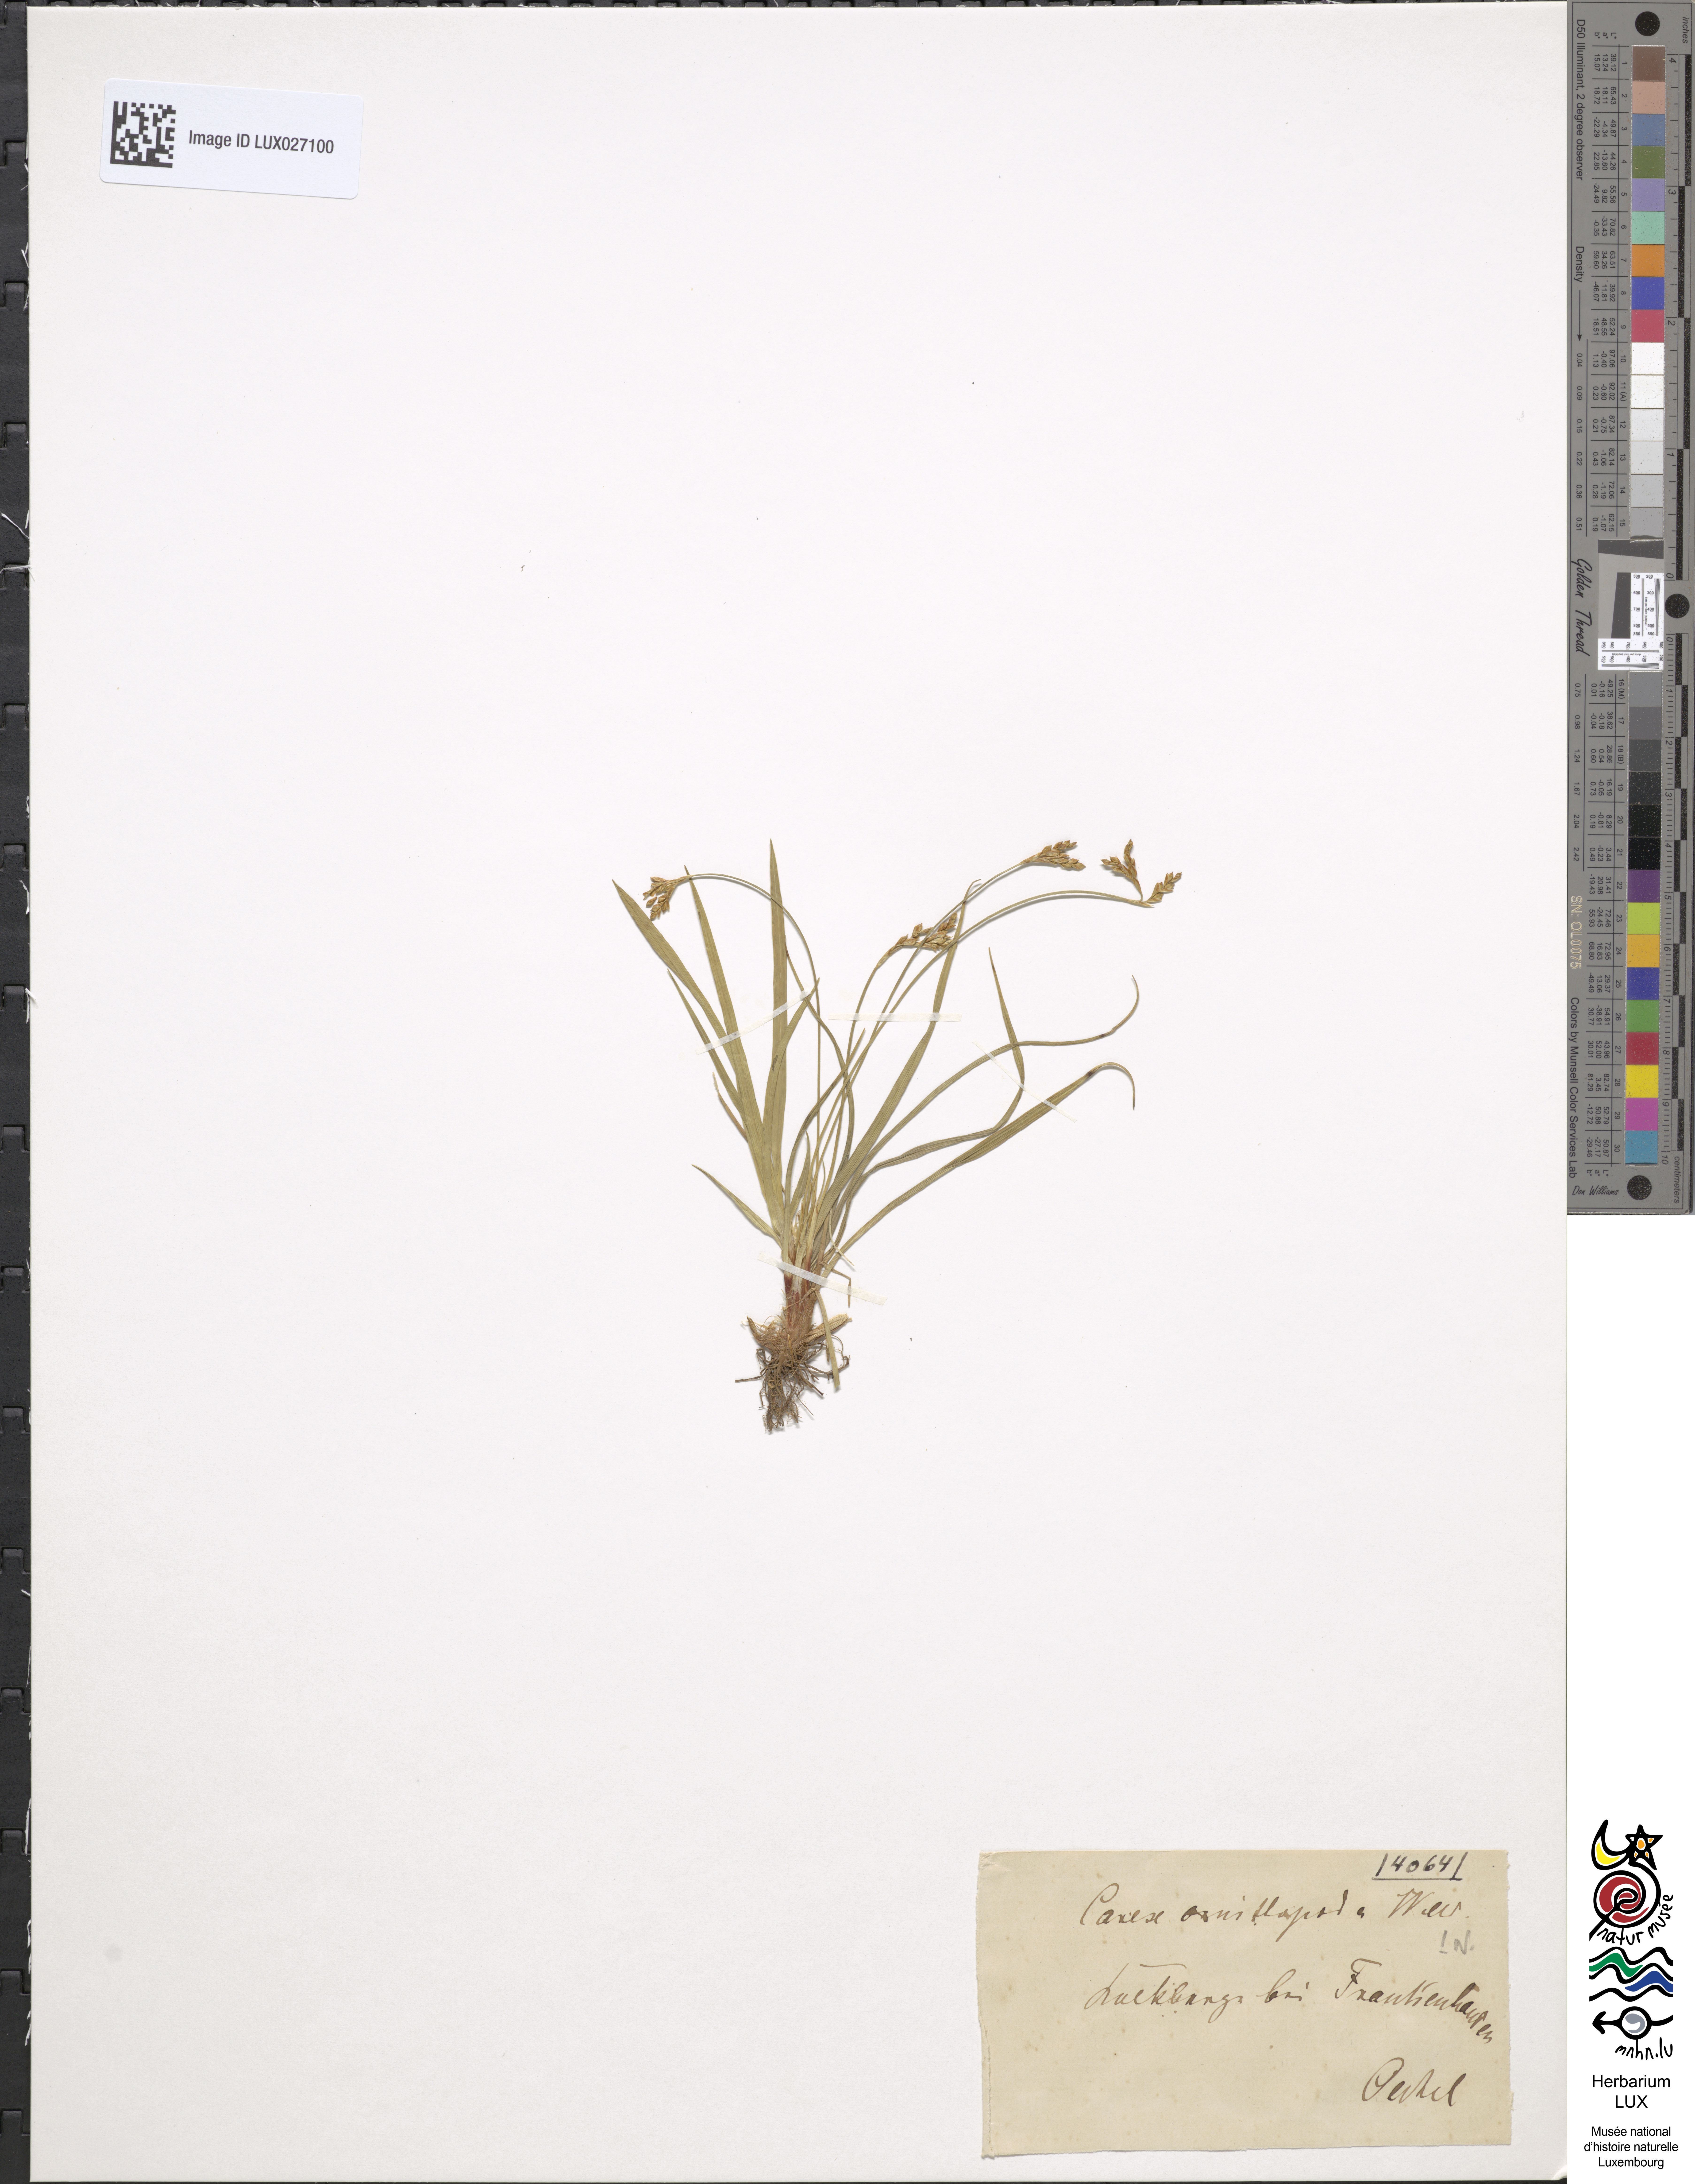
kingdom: Plantae
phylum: Tracheophyta
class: Liliopsida
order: Poales
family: Cyperaceae
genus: Carex
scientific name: Carex ornithopoda
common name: Bird's-foot sedge
